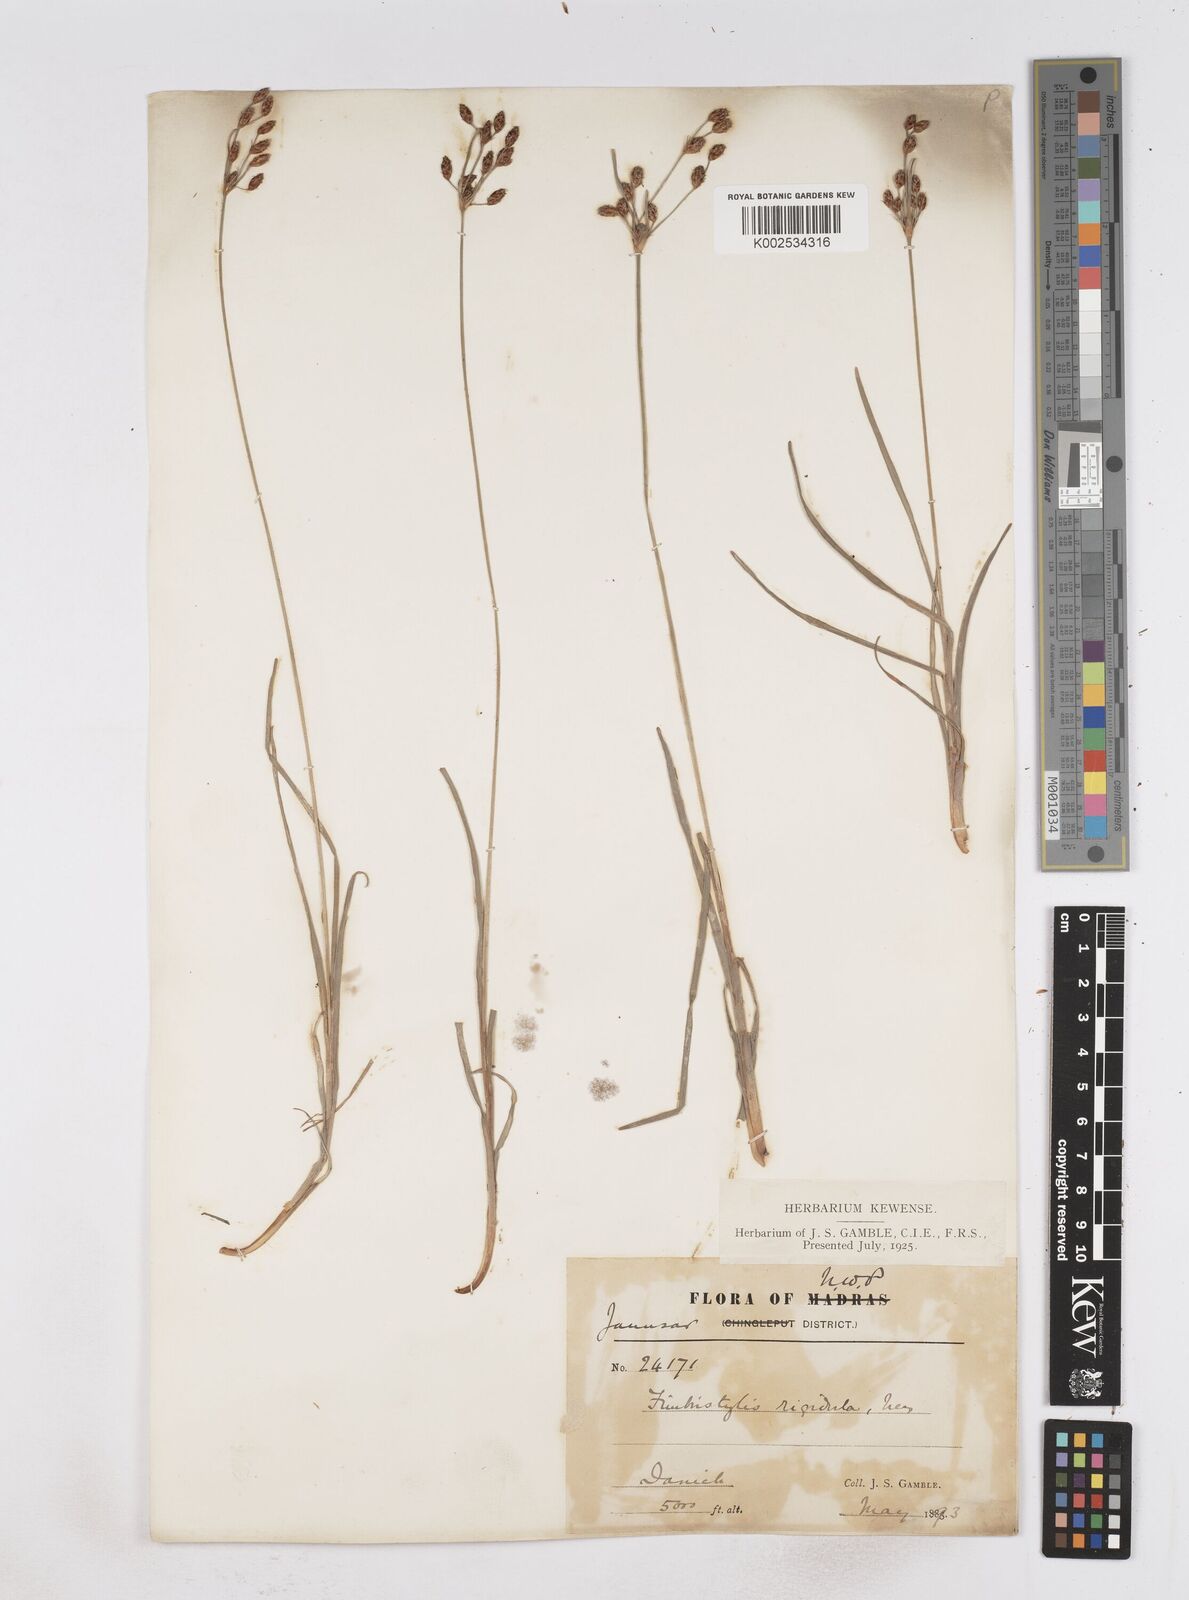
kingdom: Plantae
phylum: Tracheophyta
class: Liliopsida
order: Poales
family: Cyperaceae
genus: Fimbristylis
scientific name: Fimbristylis rigidula
